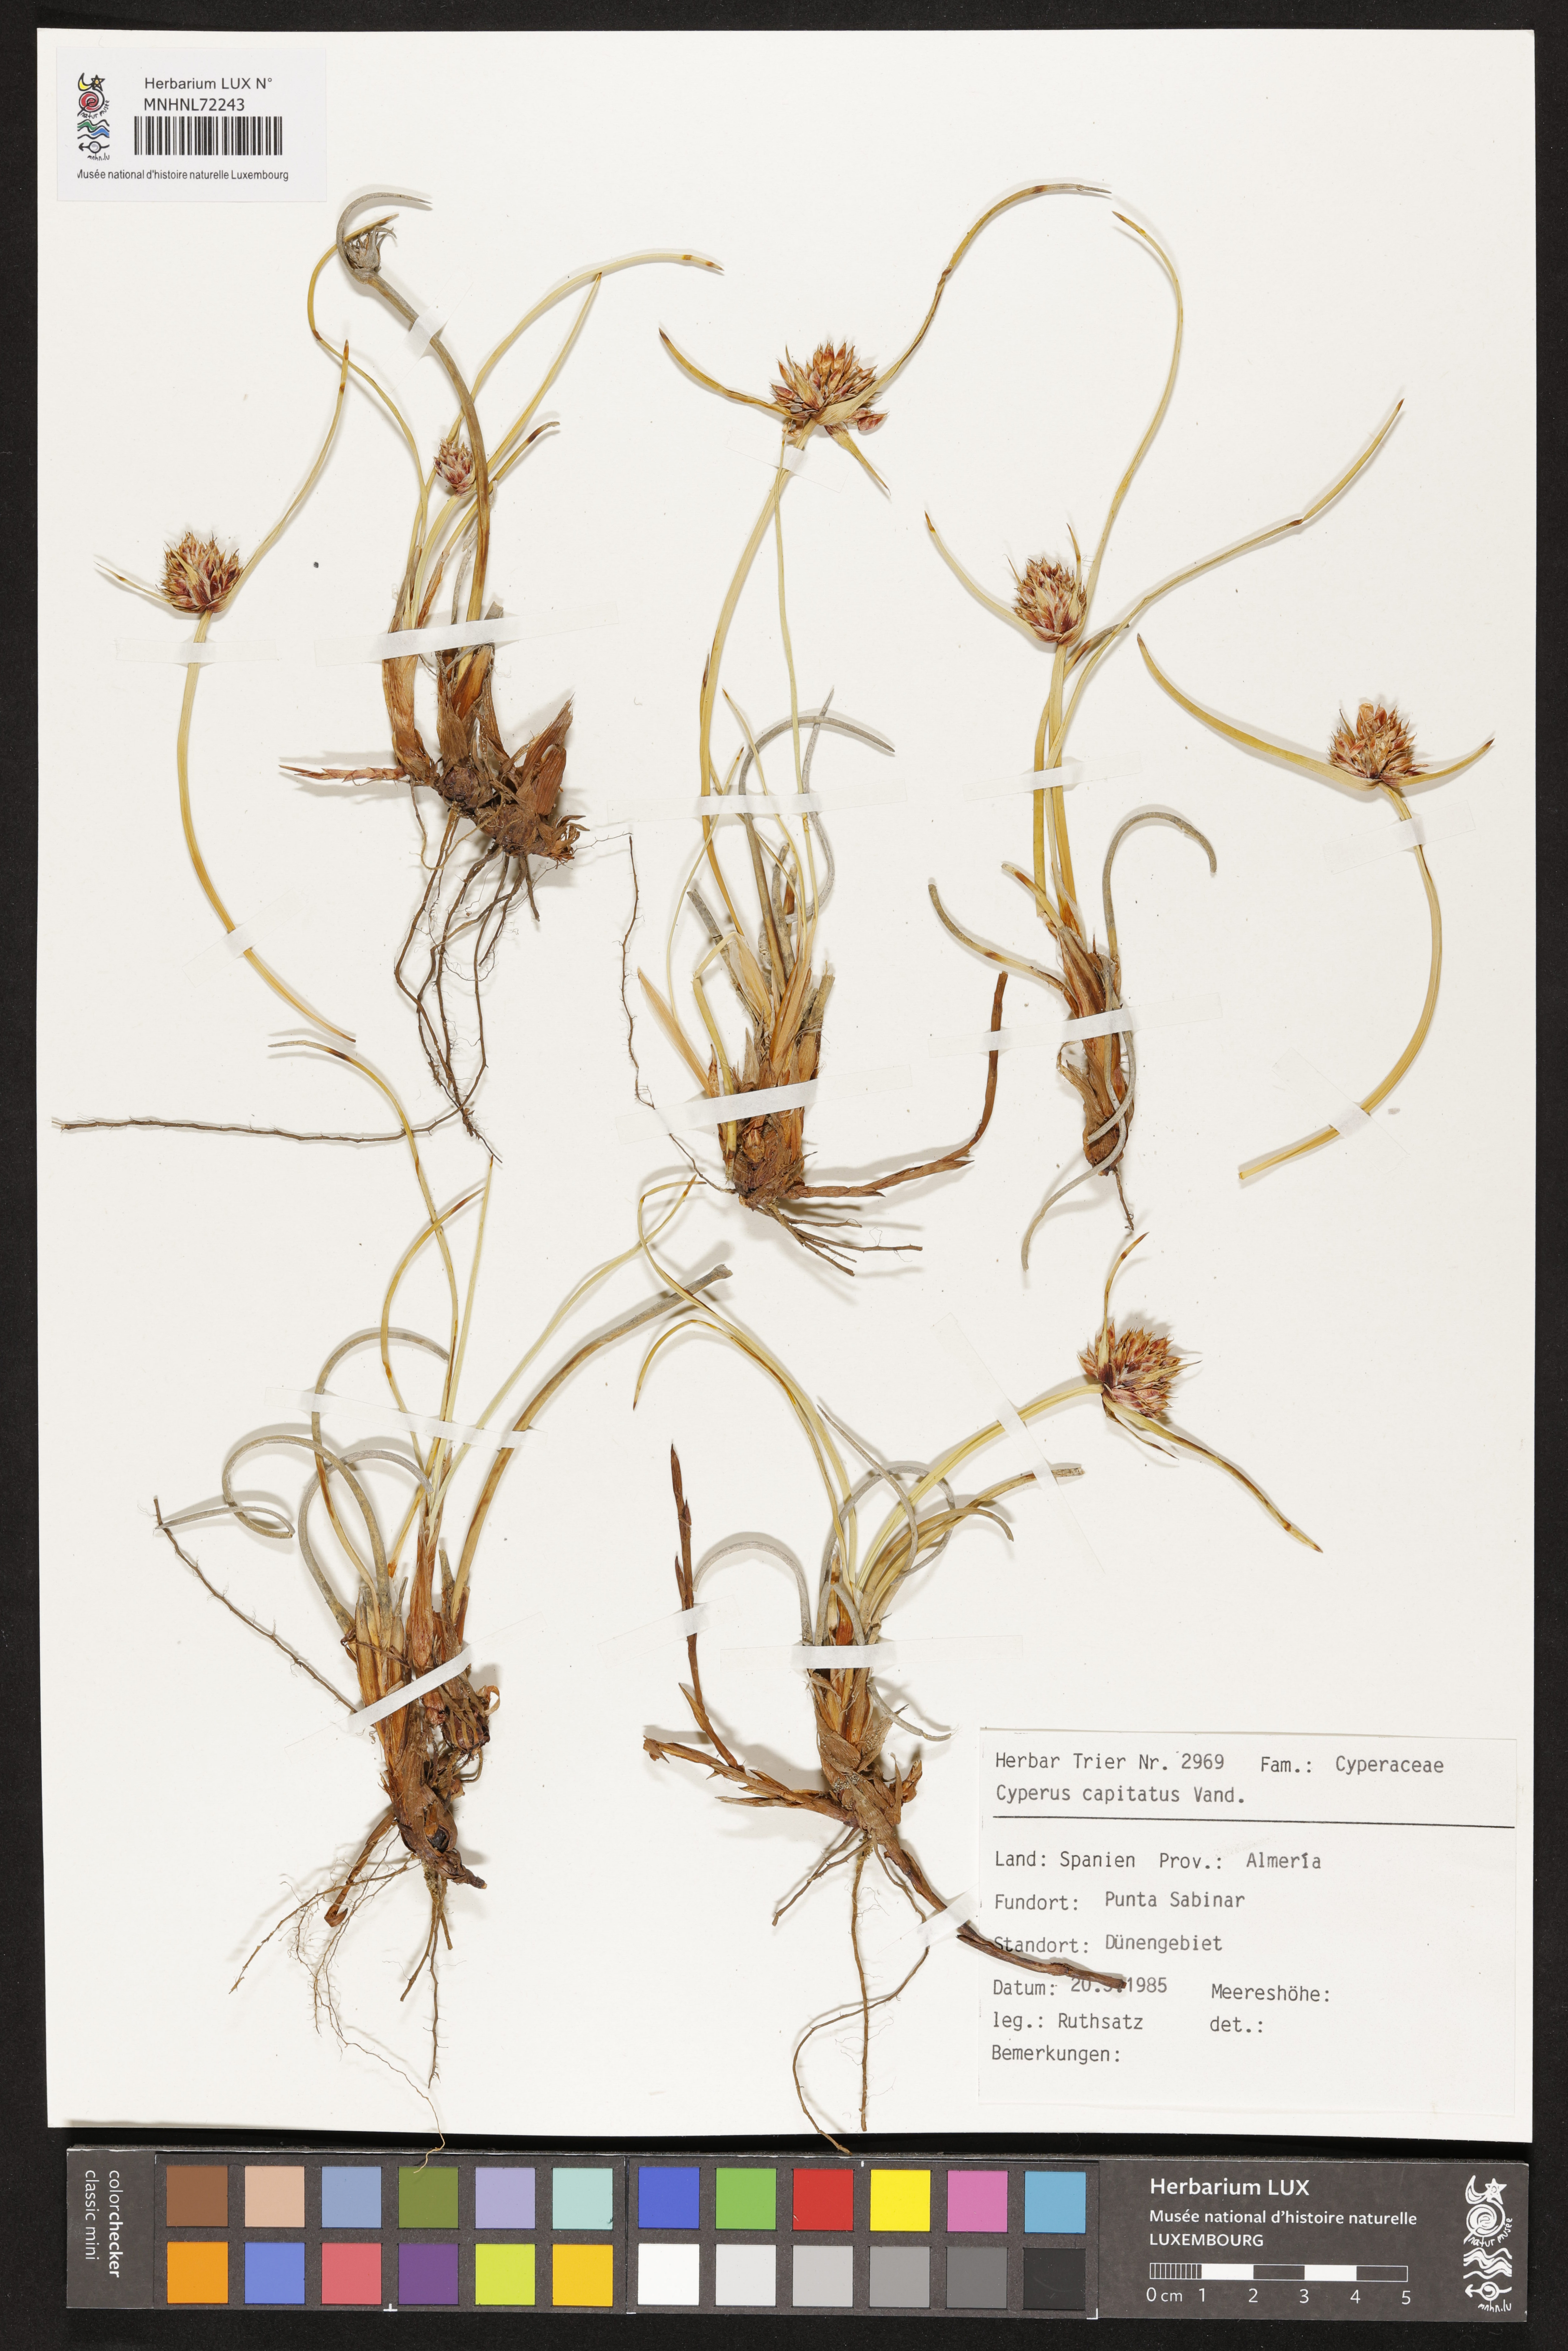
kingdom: Plantae
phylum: Tracheophyta
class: Liliopsida
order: Poales
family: Cyperaceae
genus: Cyperus
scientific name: Cyperus capitatus
